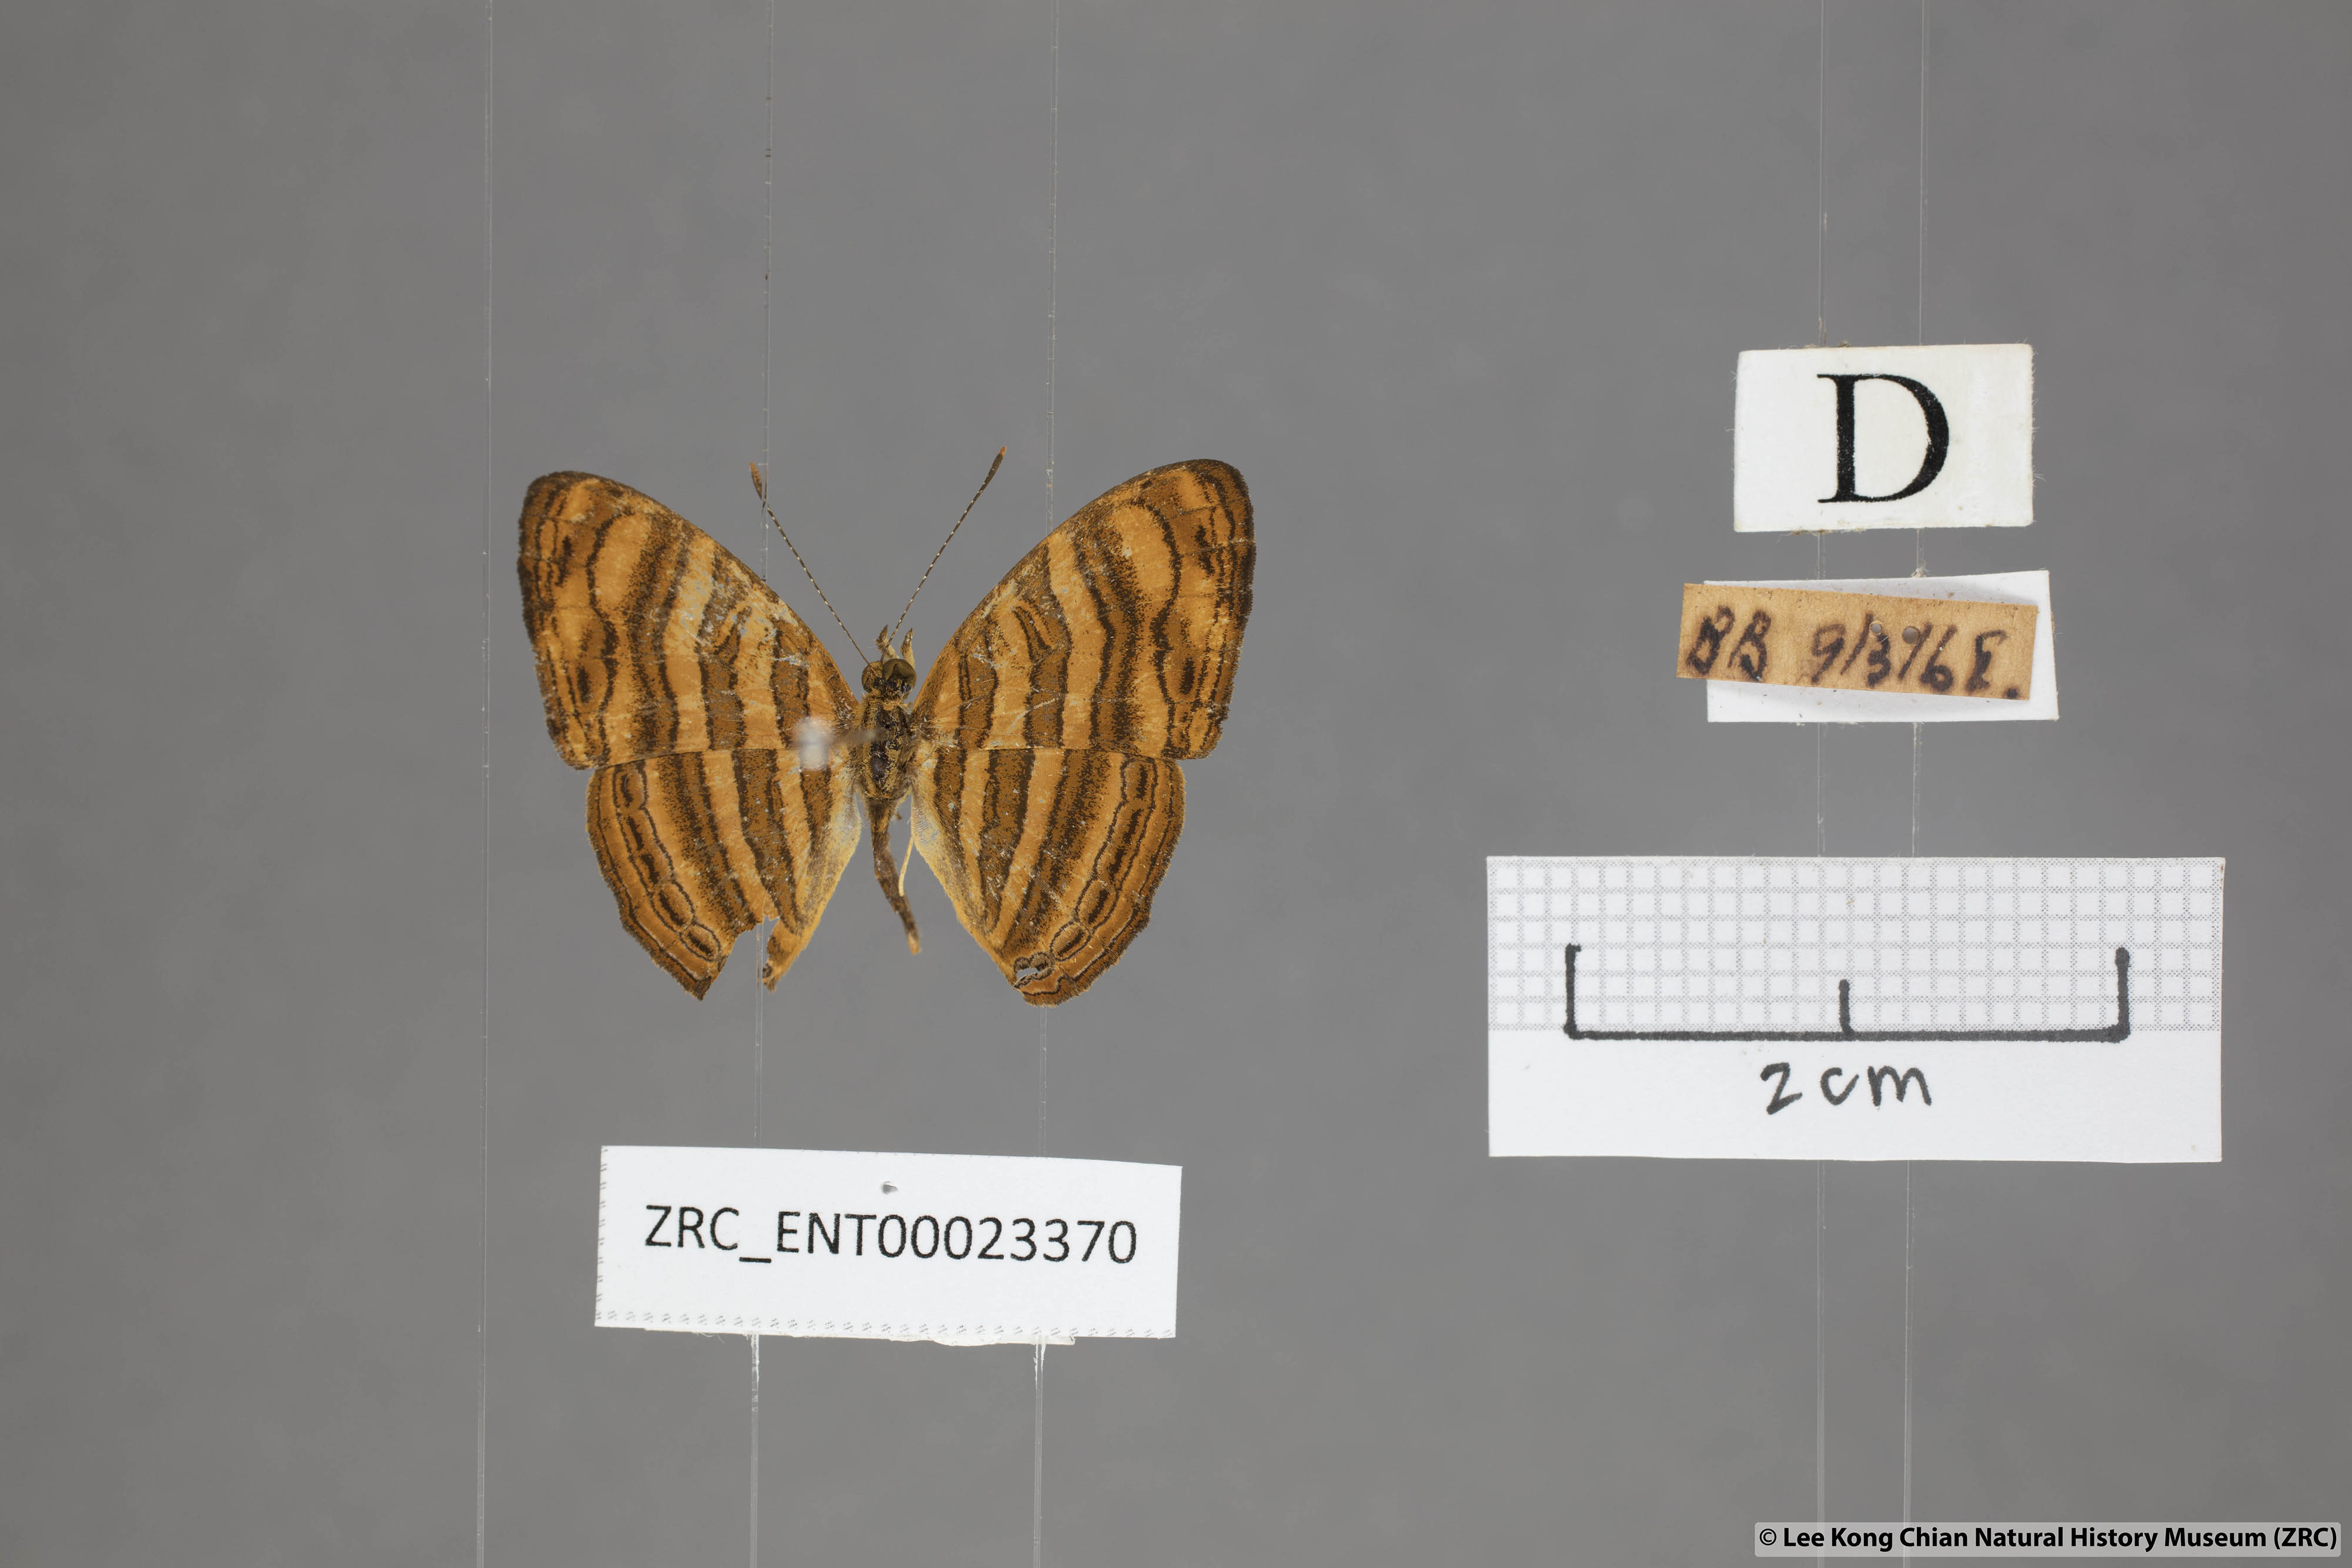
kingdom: Animalia
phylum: Arthropoda
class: Insecta
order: Lepidoptera
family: Nymphalidae
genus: Chersonesia
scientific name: Chersonesia peraka
